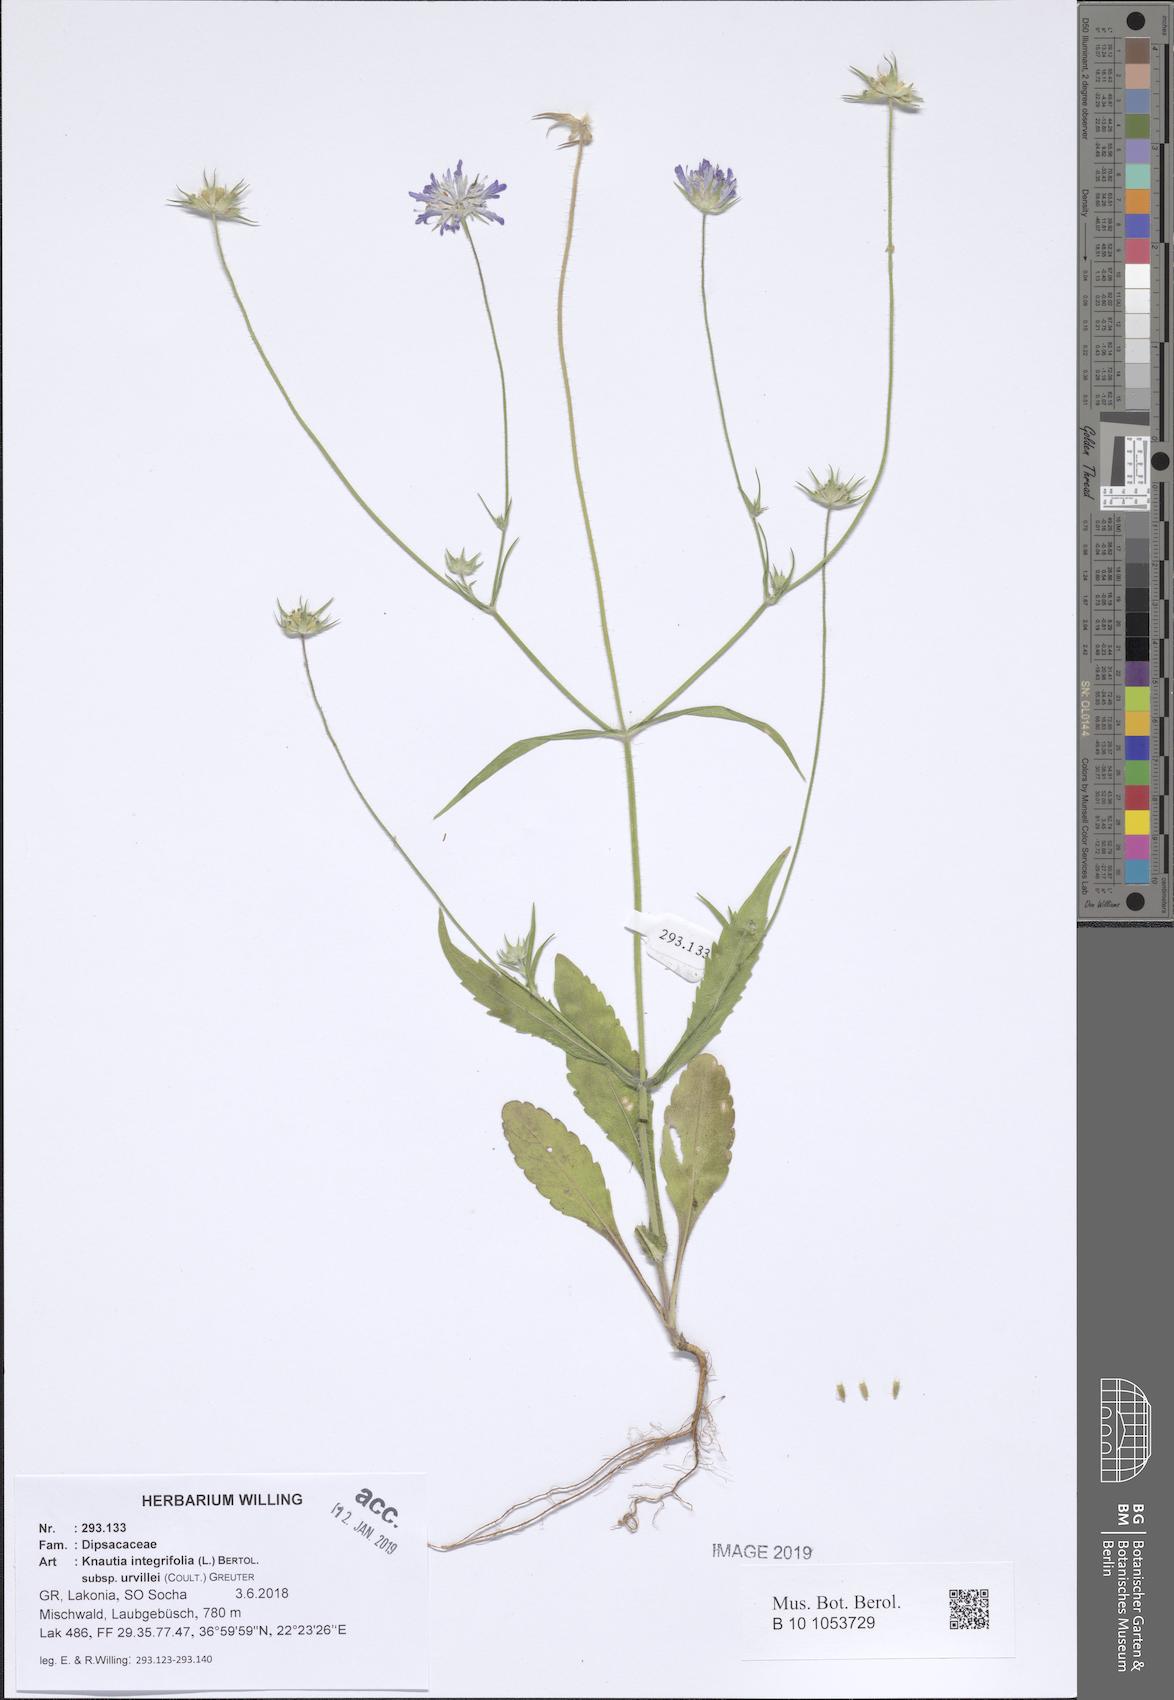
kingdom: Plantae
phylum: Tracheophyta
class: Magnoliopsida
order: Dipsacales
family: Caprifoliaceae
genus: Knautia
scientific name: Knautia integrifolia
